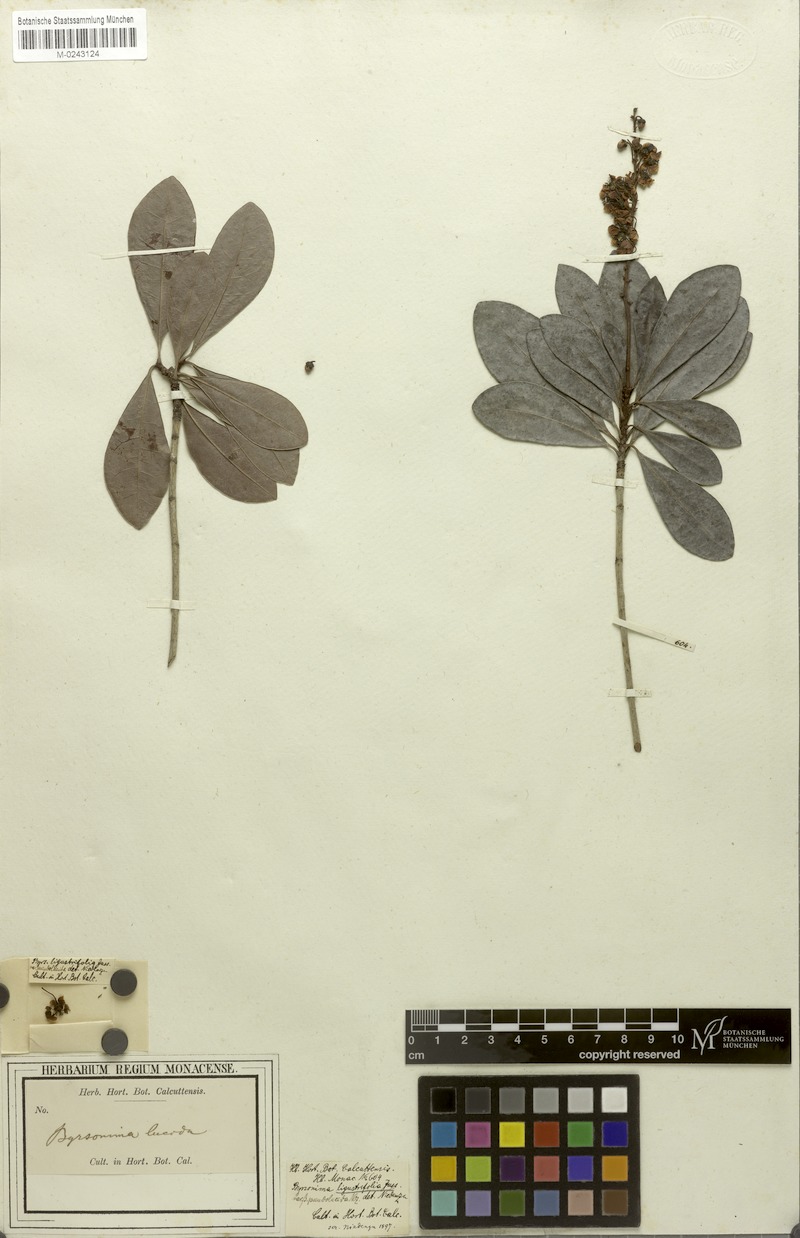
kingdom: Plantae
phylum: Tracheophyta
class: Magnoliopsida
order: Malpighiales
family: Malpighiaceae
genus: Byrsonima
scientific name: Byrsonima ligustrifolia
